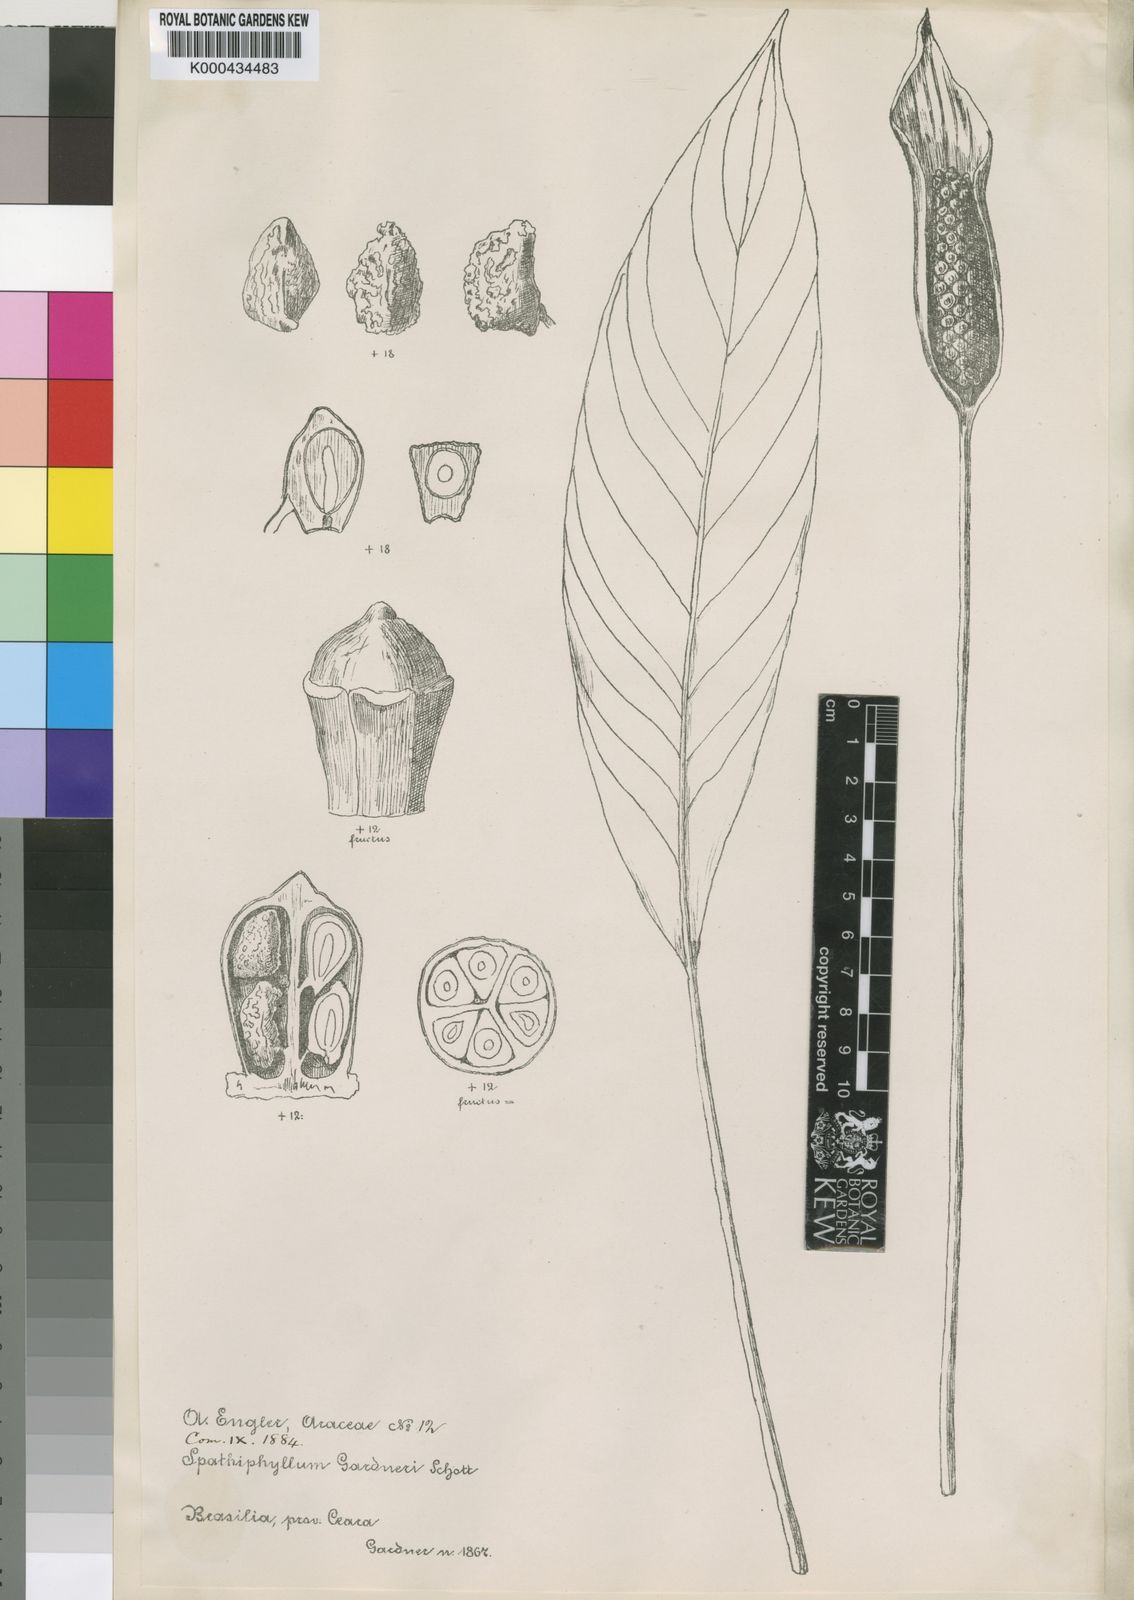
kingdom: Plantae
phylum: Tracheophyta
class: Liliopsida
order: Alismatales
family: Araceae
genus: Spathiphyllum
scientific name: Spathiphyllum gardneri
